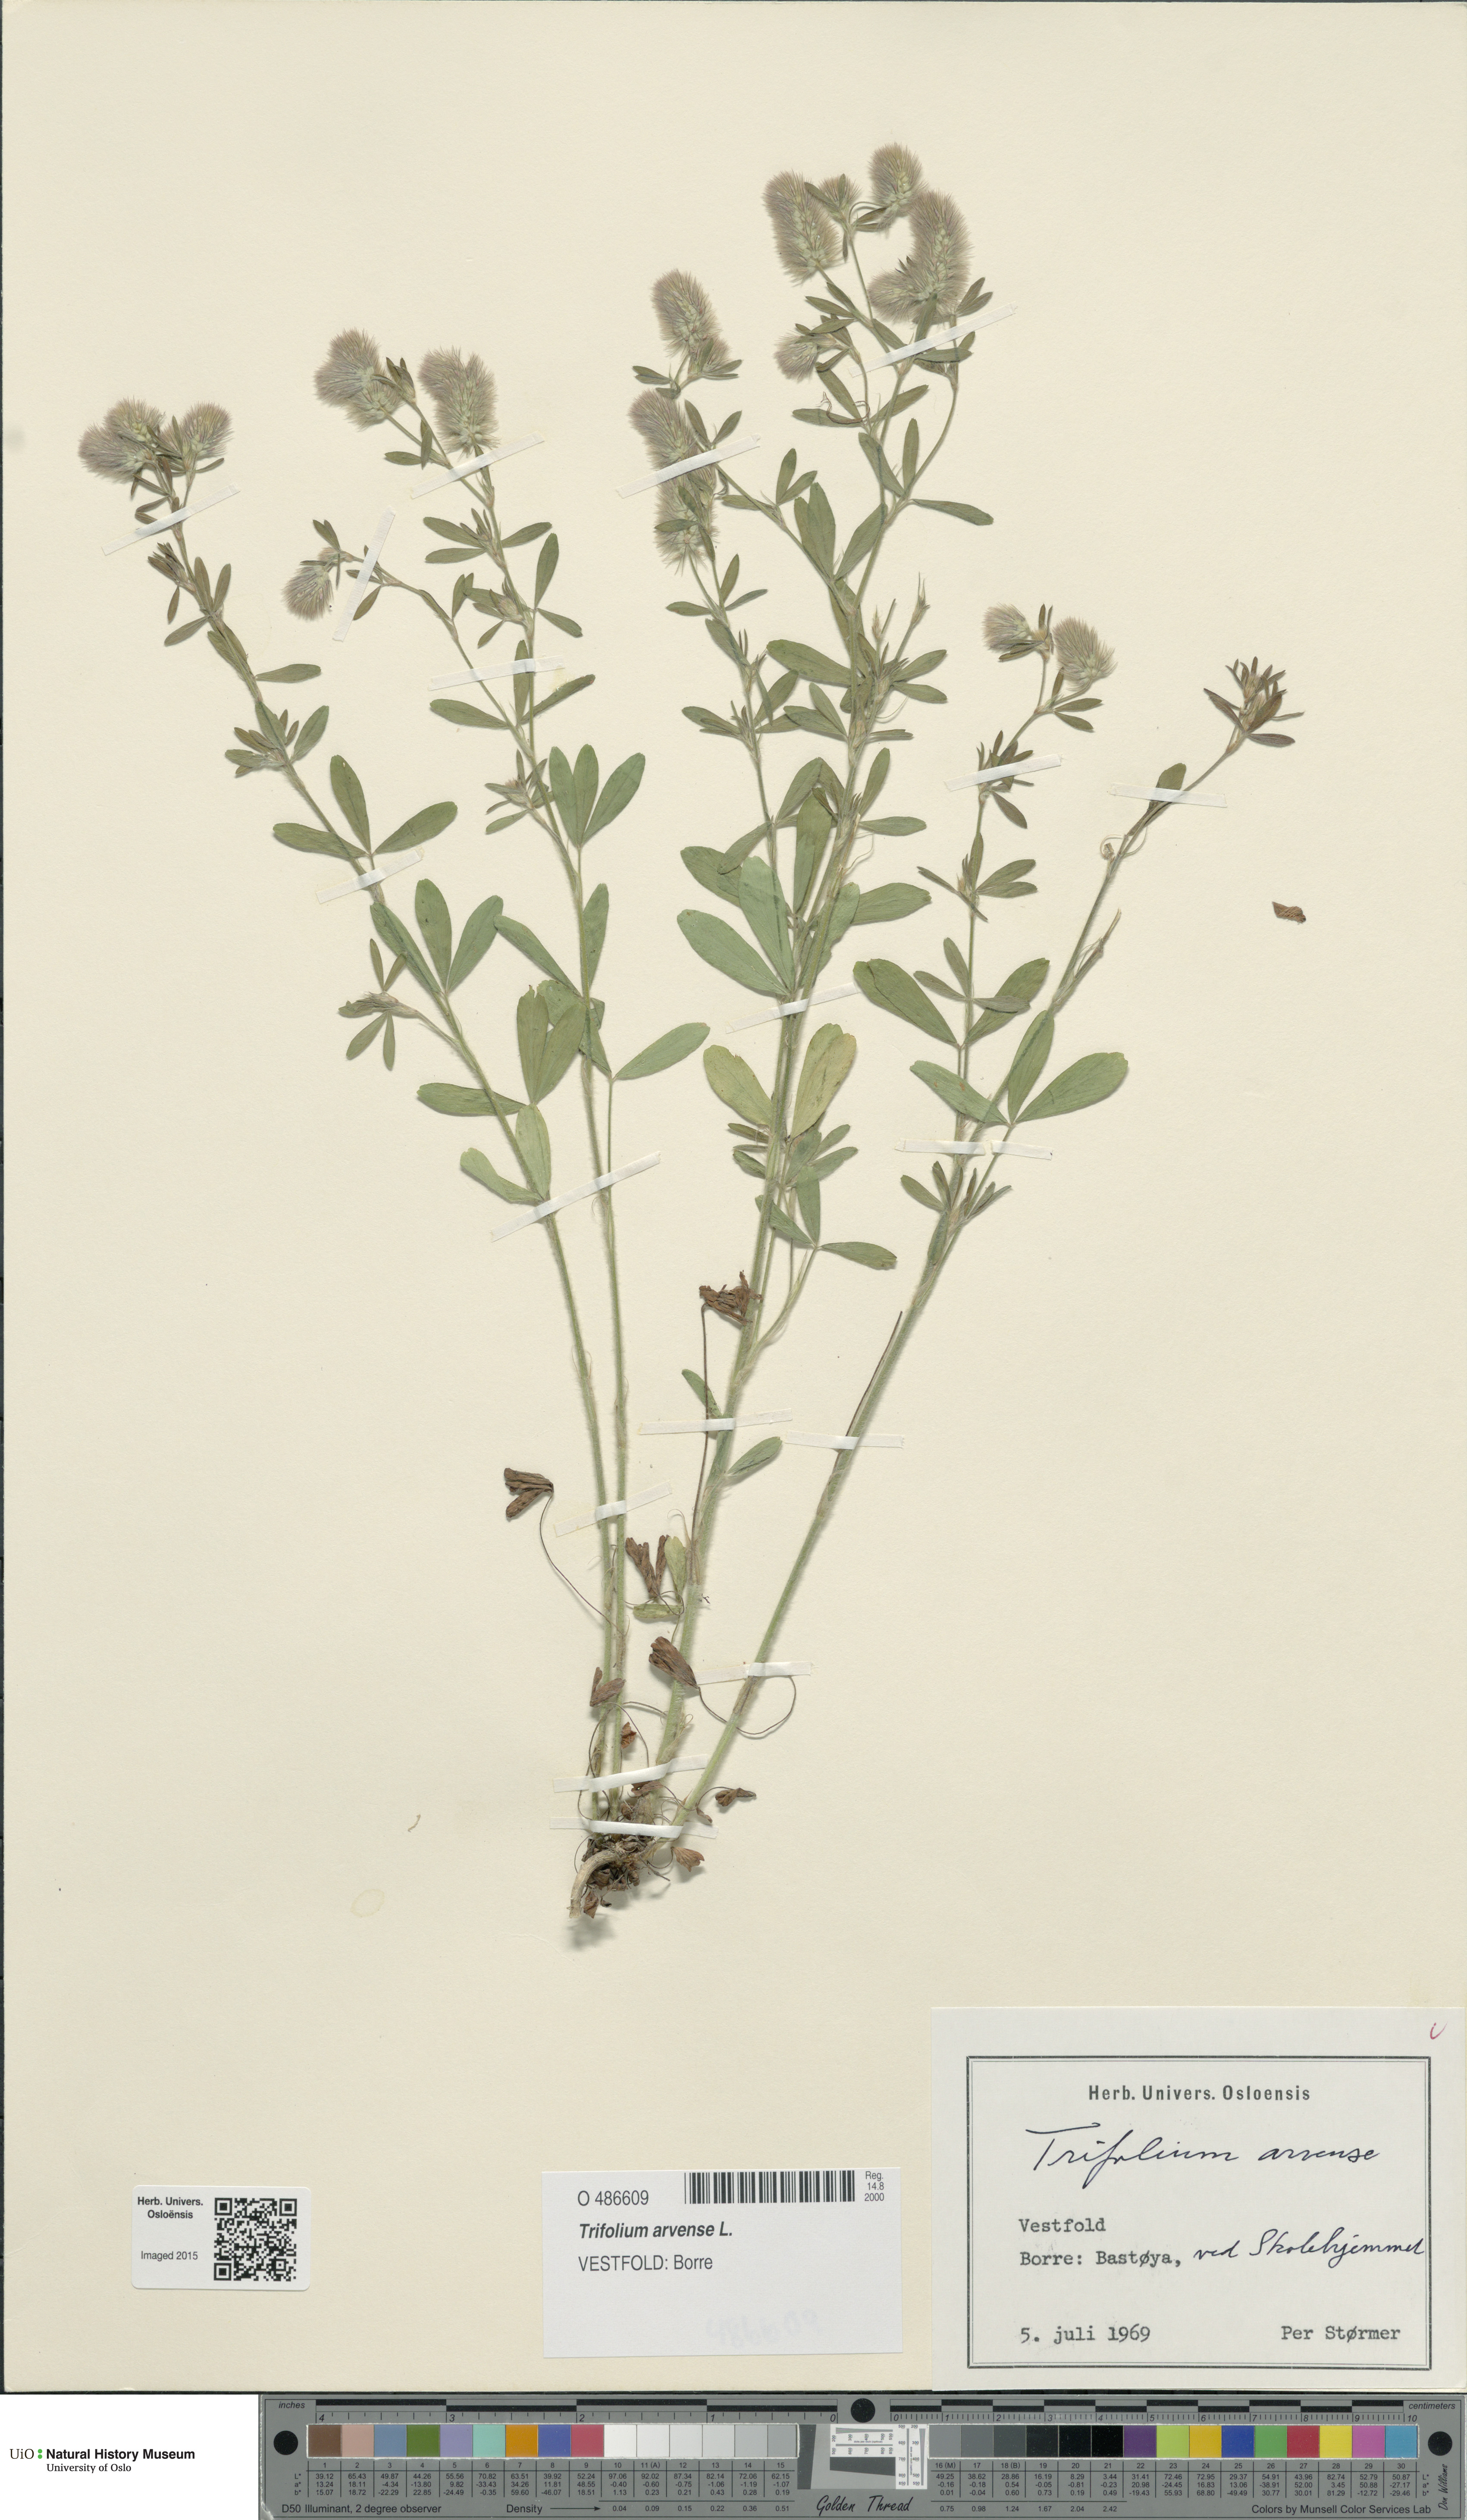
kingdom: Plantae
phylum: Tracheophyta
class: Magnoliopsida
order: Fabales
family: Fabaceae
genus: Trifolium
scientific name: Trifolium arvense
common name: Hare's-foot clover
